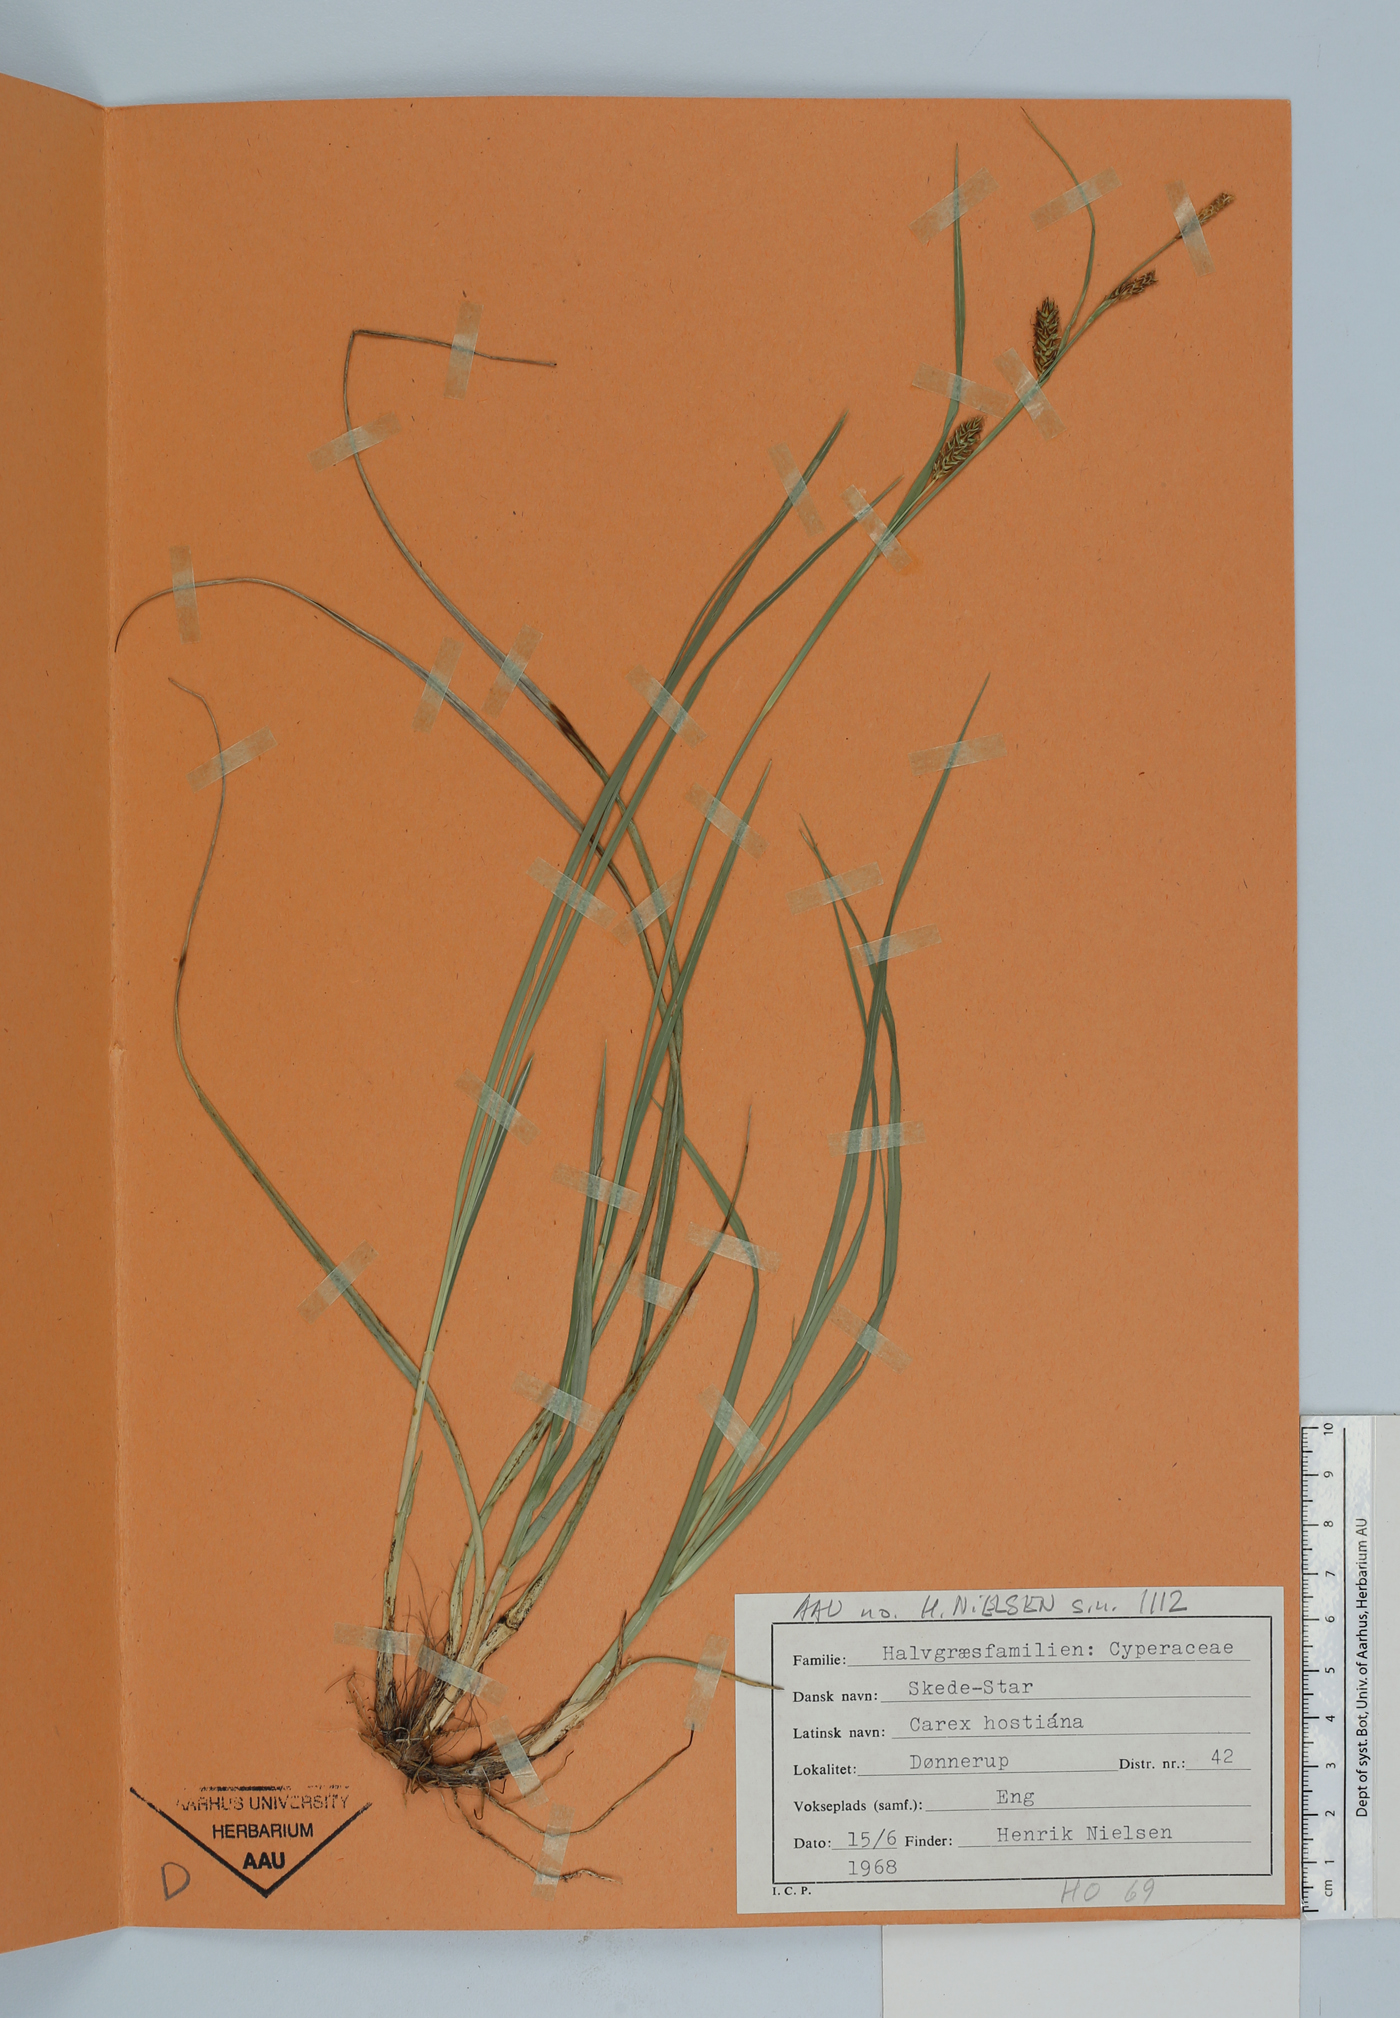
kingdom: Plantae
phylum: Tracheophyta
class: Liliopsida
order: Poales
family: Cyperaceae
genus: Carex
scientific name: Carex hostiana
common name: Tawny sedge
